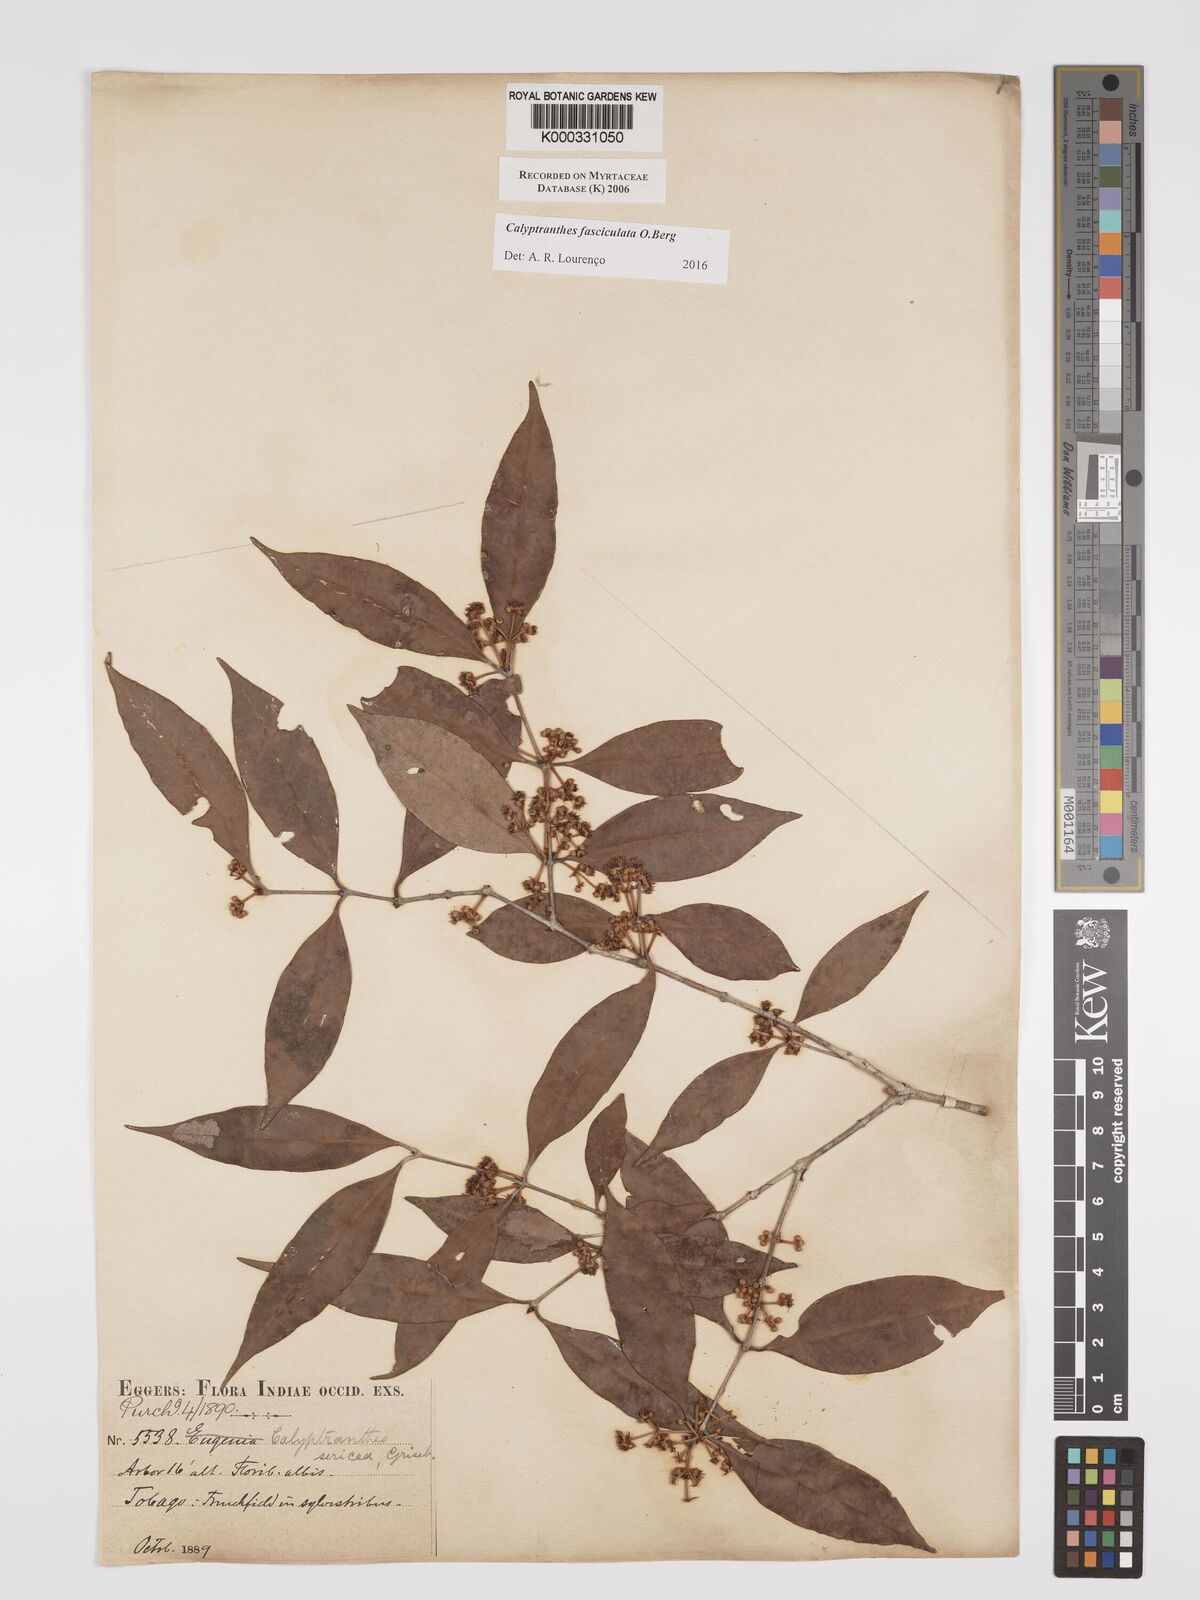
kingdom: Plantae
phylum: Tracheophyta
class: Magnoliopsida
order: Myrtales
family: Myrtaceae
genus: Myrcia
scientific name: Myrcia fasciculata
